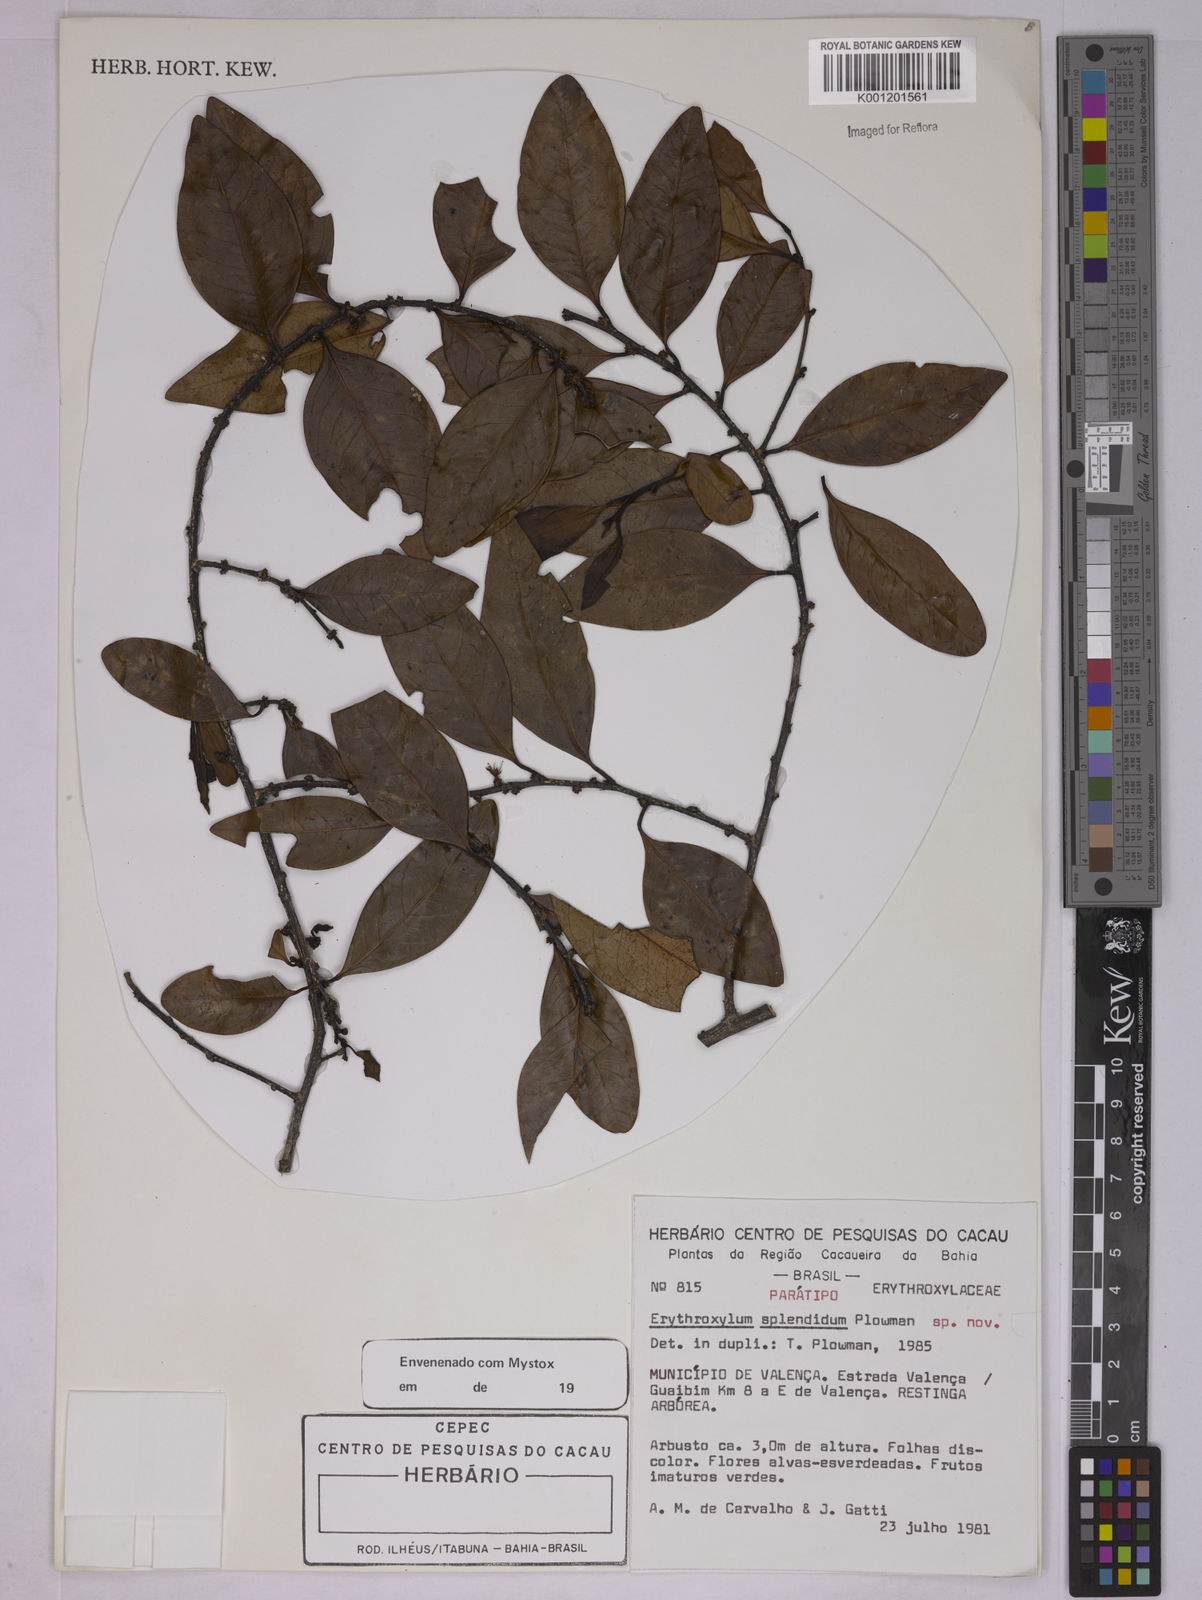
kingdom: Plantae
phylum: Tracheophyta
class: Magnoliopsida
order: Malpighiales
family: Erythroxylaceae
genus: Erythroxylum
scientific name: Erythroxylum splendidum
